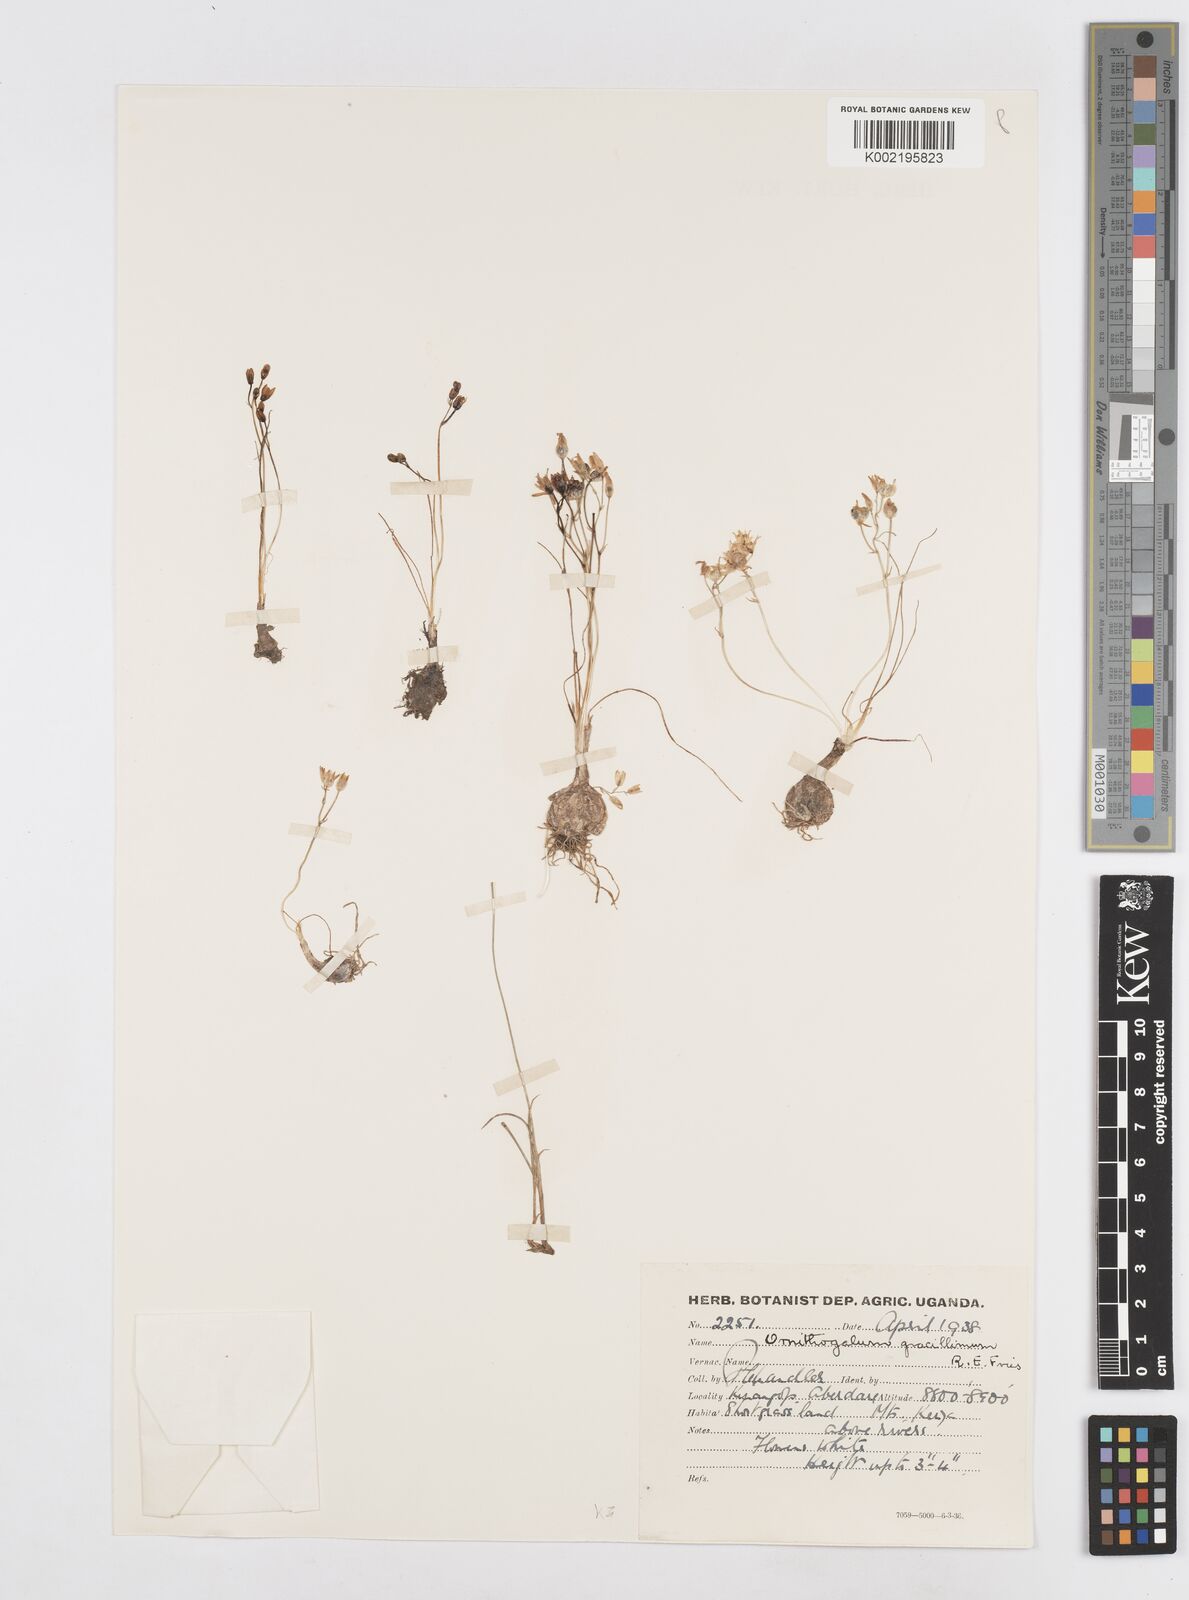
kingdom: Plantae
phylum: Tracheophyta
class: Liliopsida
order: Asparagales
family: Asparagaceae
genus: Ornithogalum
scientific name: Ornithogalum gracillimum
